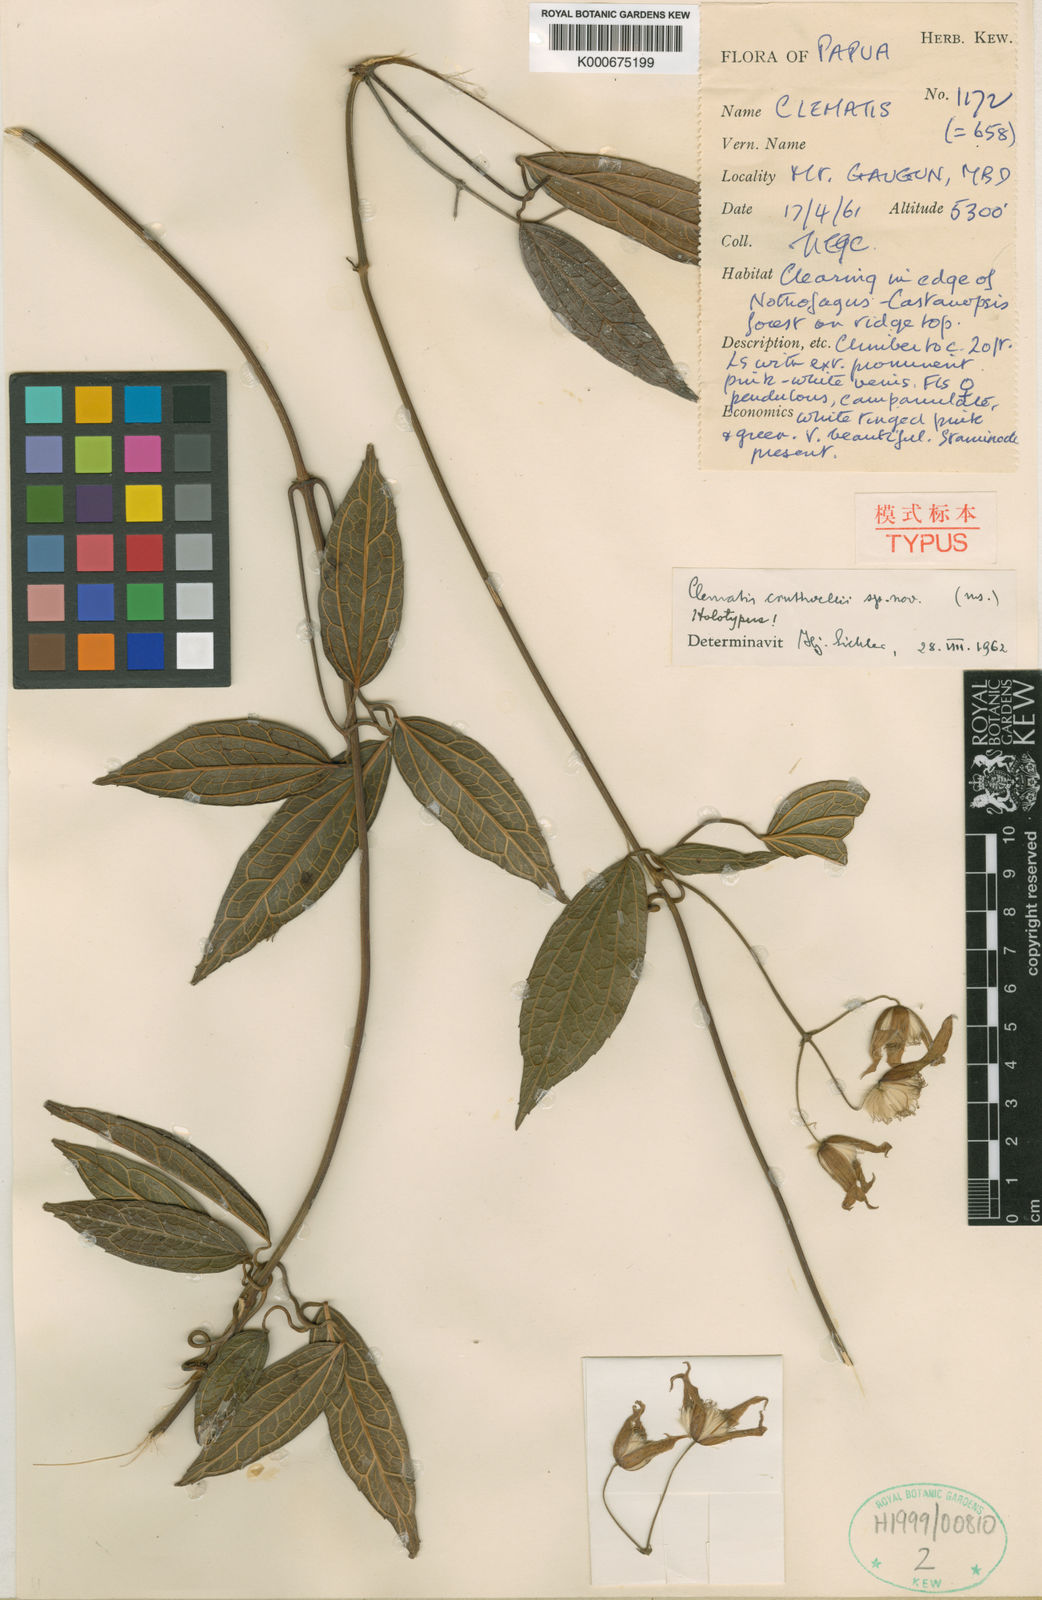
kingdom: Plantae
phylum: Tracheophyta
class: Magnoliopsida
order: Ranunculales
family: Ranunculaceae
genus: Clematis
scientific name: Clematis cruttwellii
